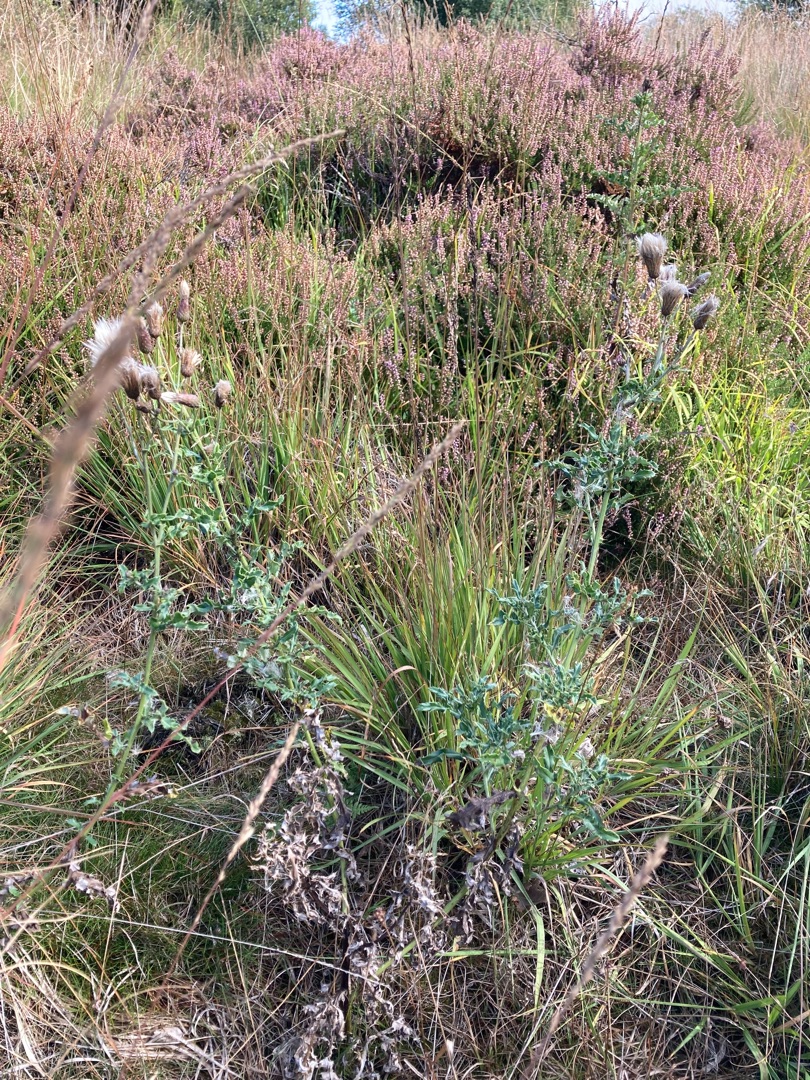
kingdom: Plantae
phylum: Tracheophyta
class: Magnoliopsida
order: Asterales
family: Asteraceae
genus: Cirsium
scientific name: Cirsium arvense
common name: Ager-tidsel
